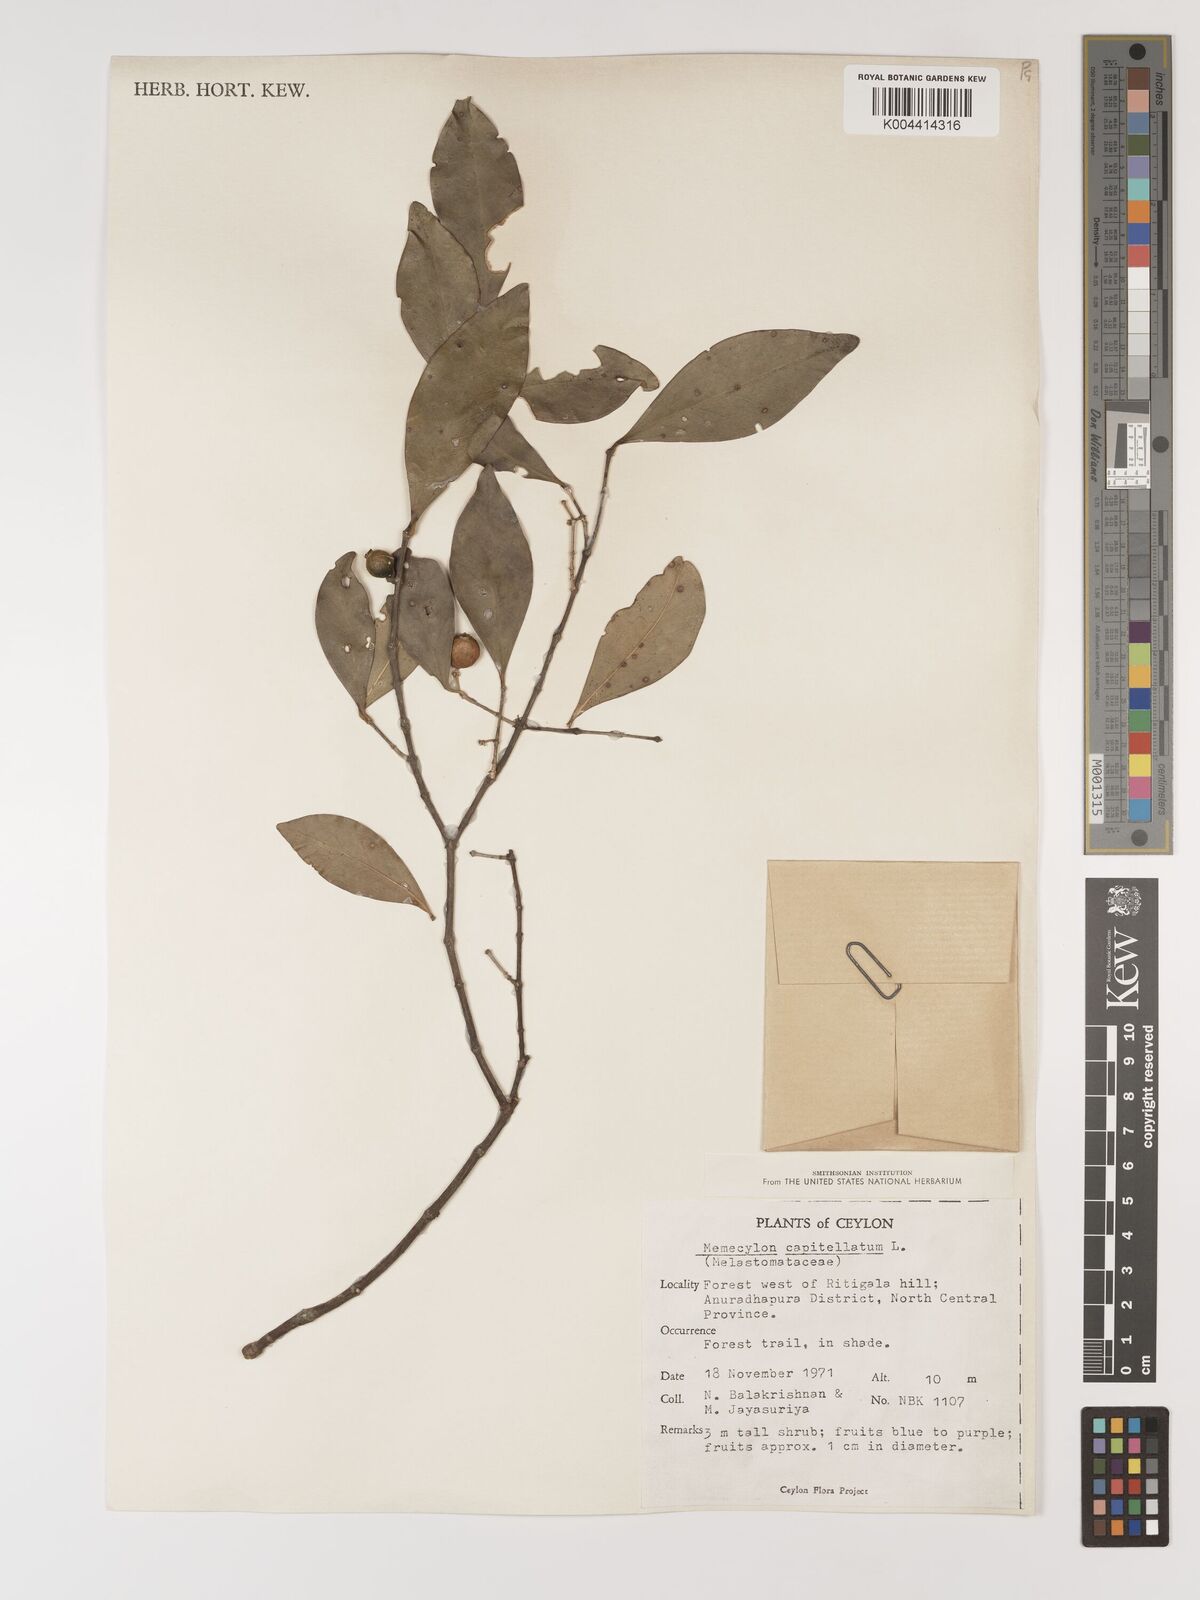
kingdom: Plantae
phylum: Tracheophyta
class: Magnoliopsida
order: Myrtales
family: Melastomataceae
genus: Memecylon
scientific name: Memecylon capitellatum
